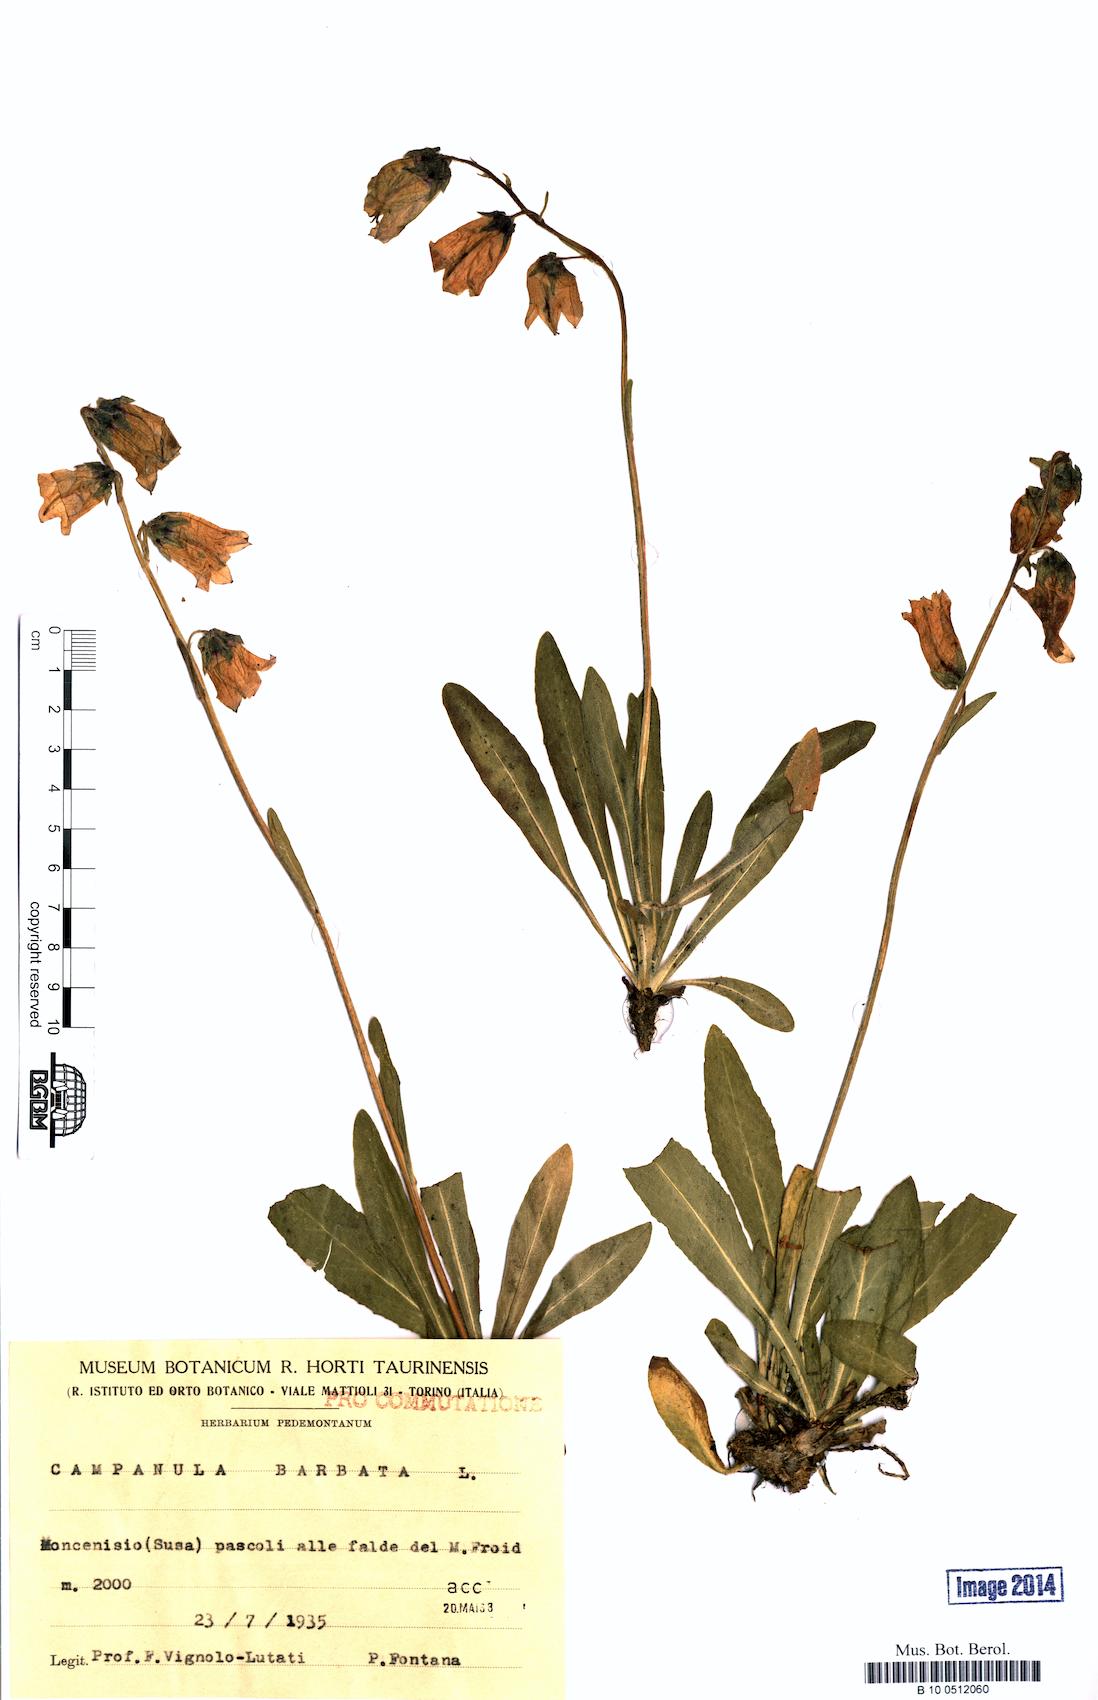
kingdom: Plantae
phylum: Tracheophyta
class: Magnoliopsida
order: Asterales
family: Campanulaceae
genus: Campanula
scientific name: Campanula barbata
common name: Bearded bellflower
